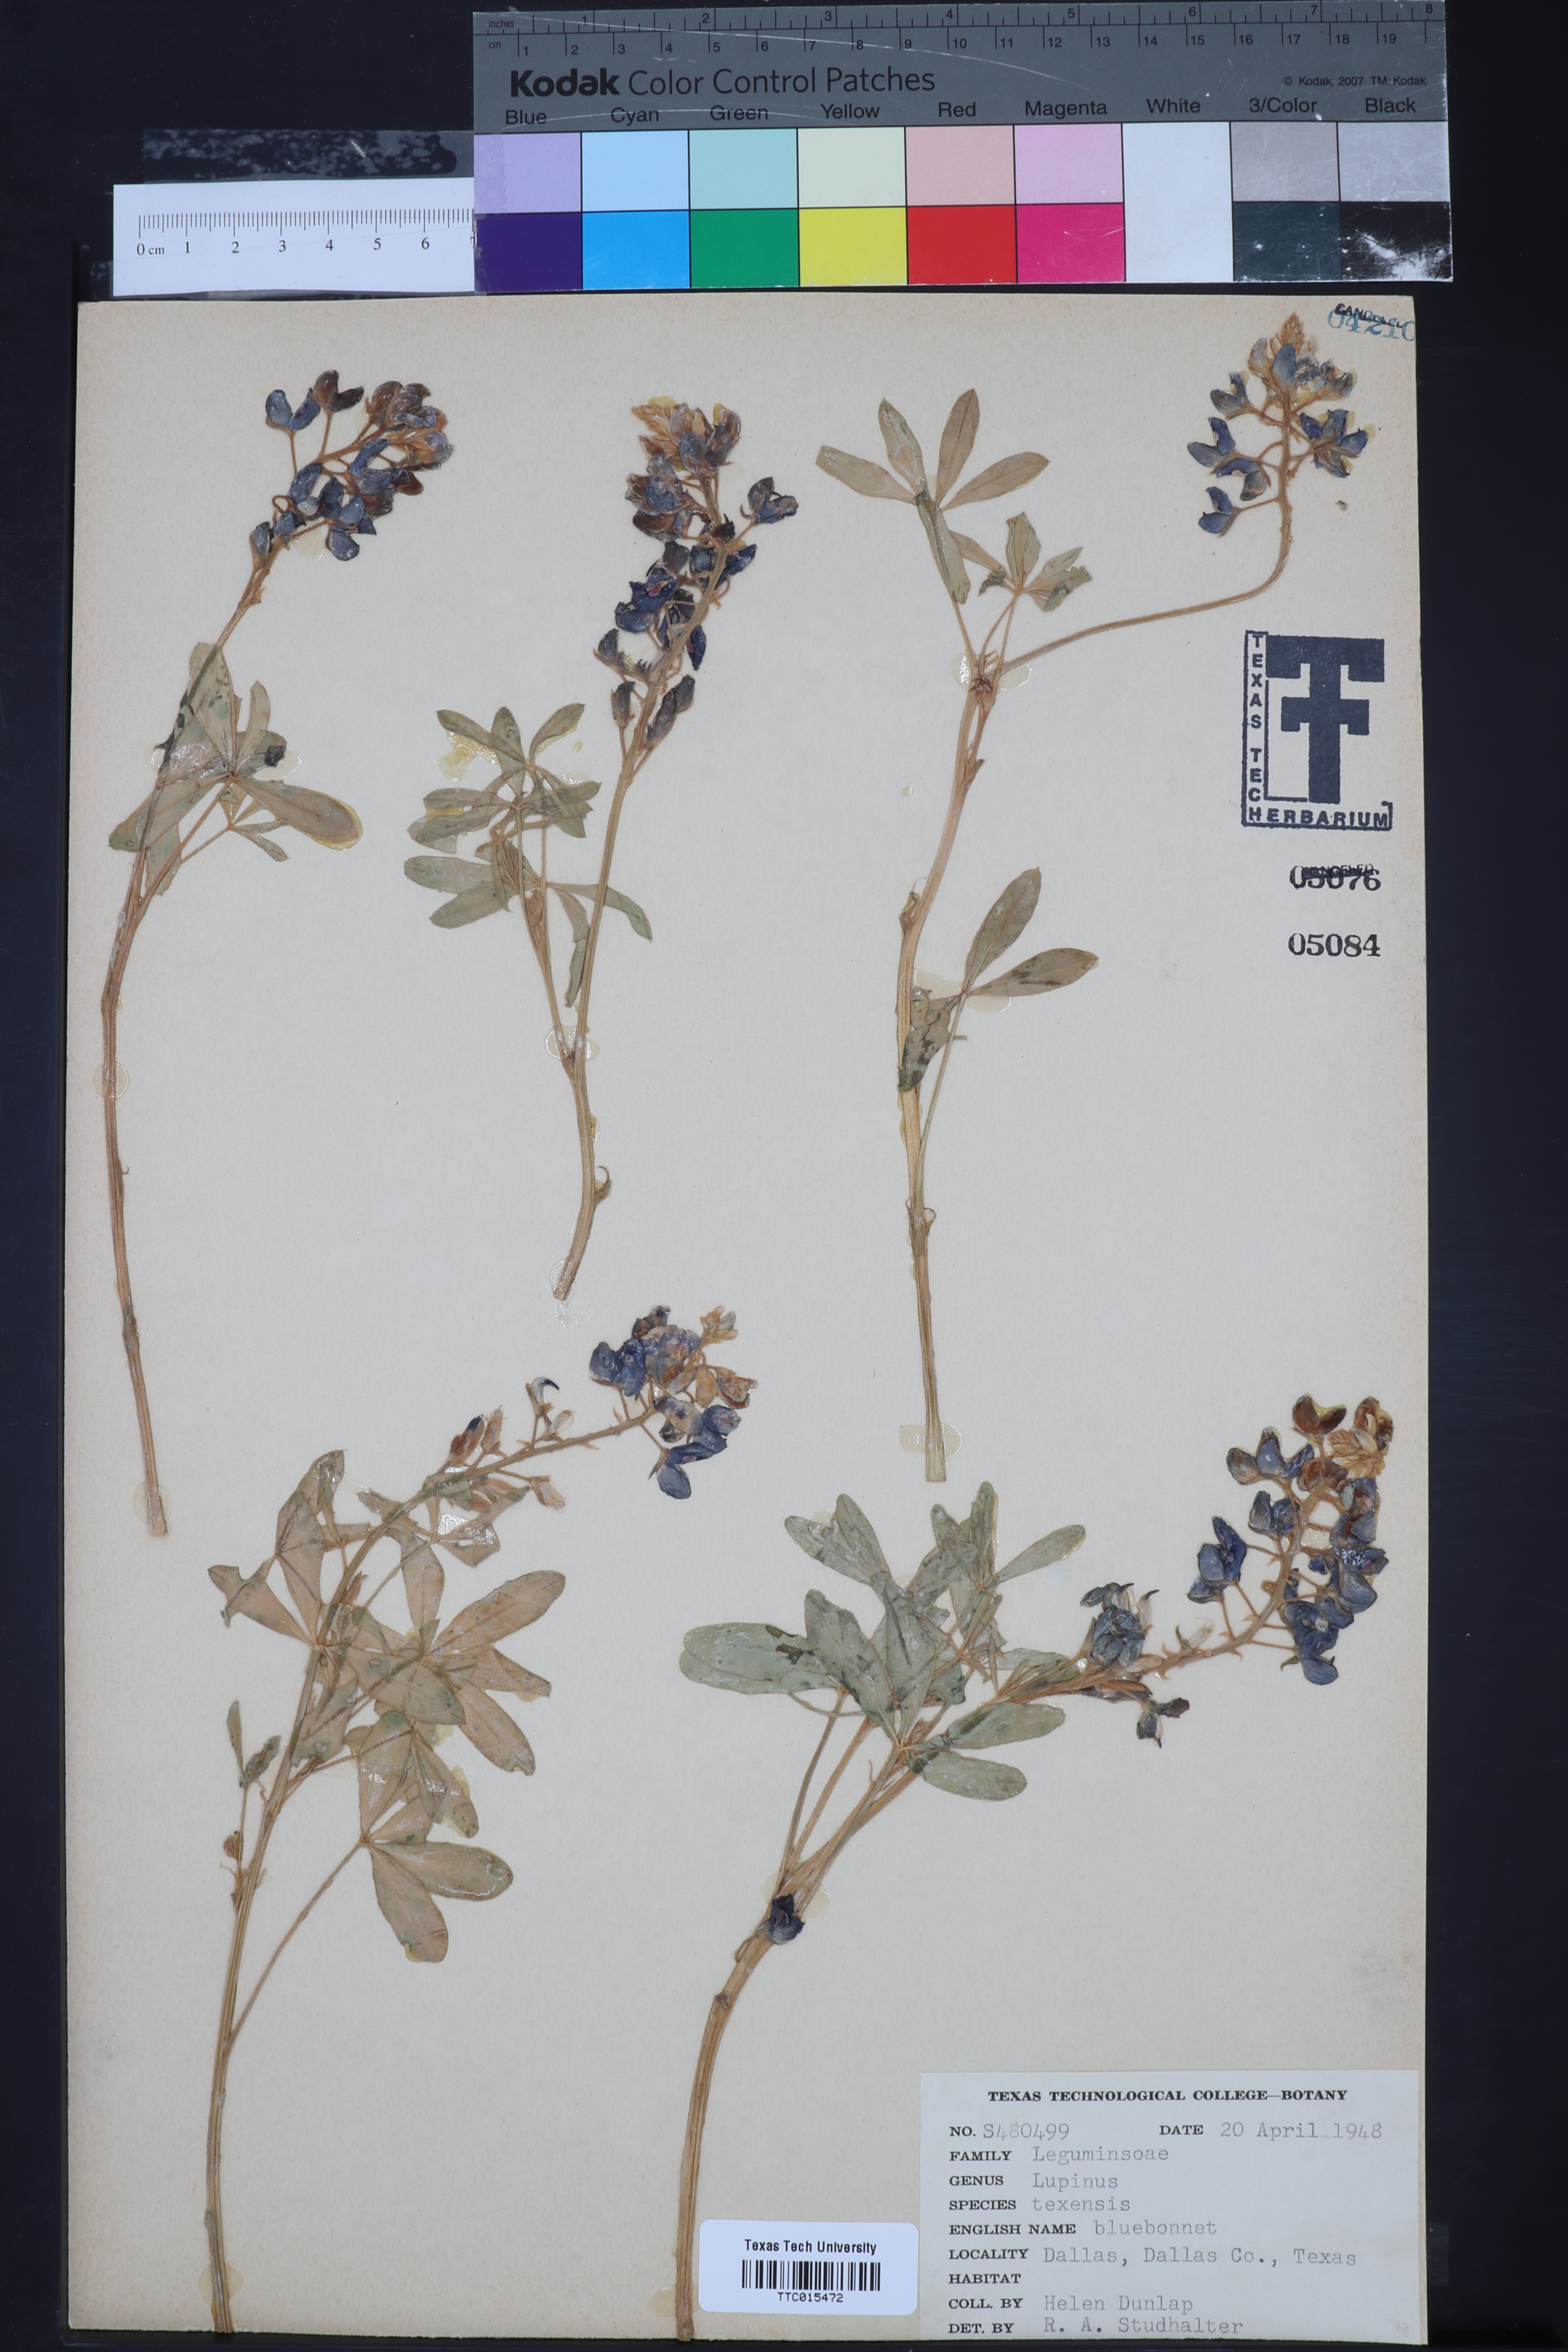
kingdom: Plantae
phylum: Tracheophyta
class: Magnoliopsida
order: Fabales
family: Fabaceae
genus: Lupinus
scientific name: Lupinus texensis
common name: Texas bluebonnet
